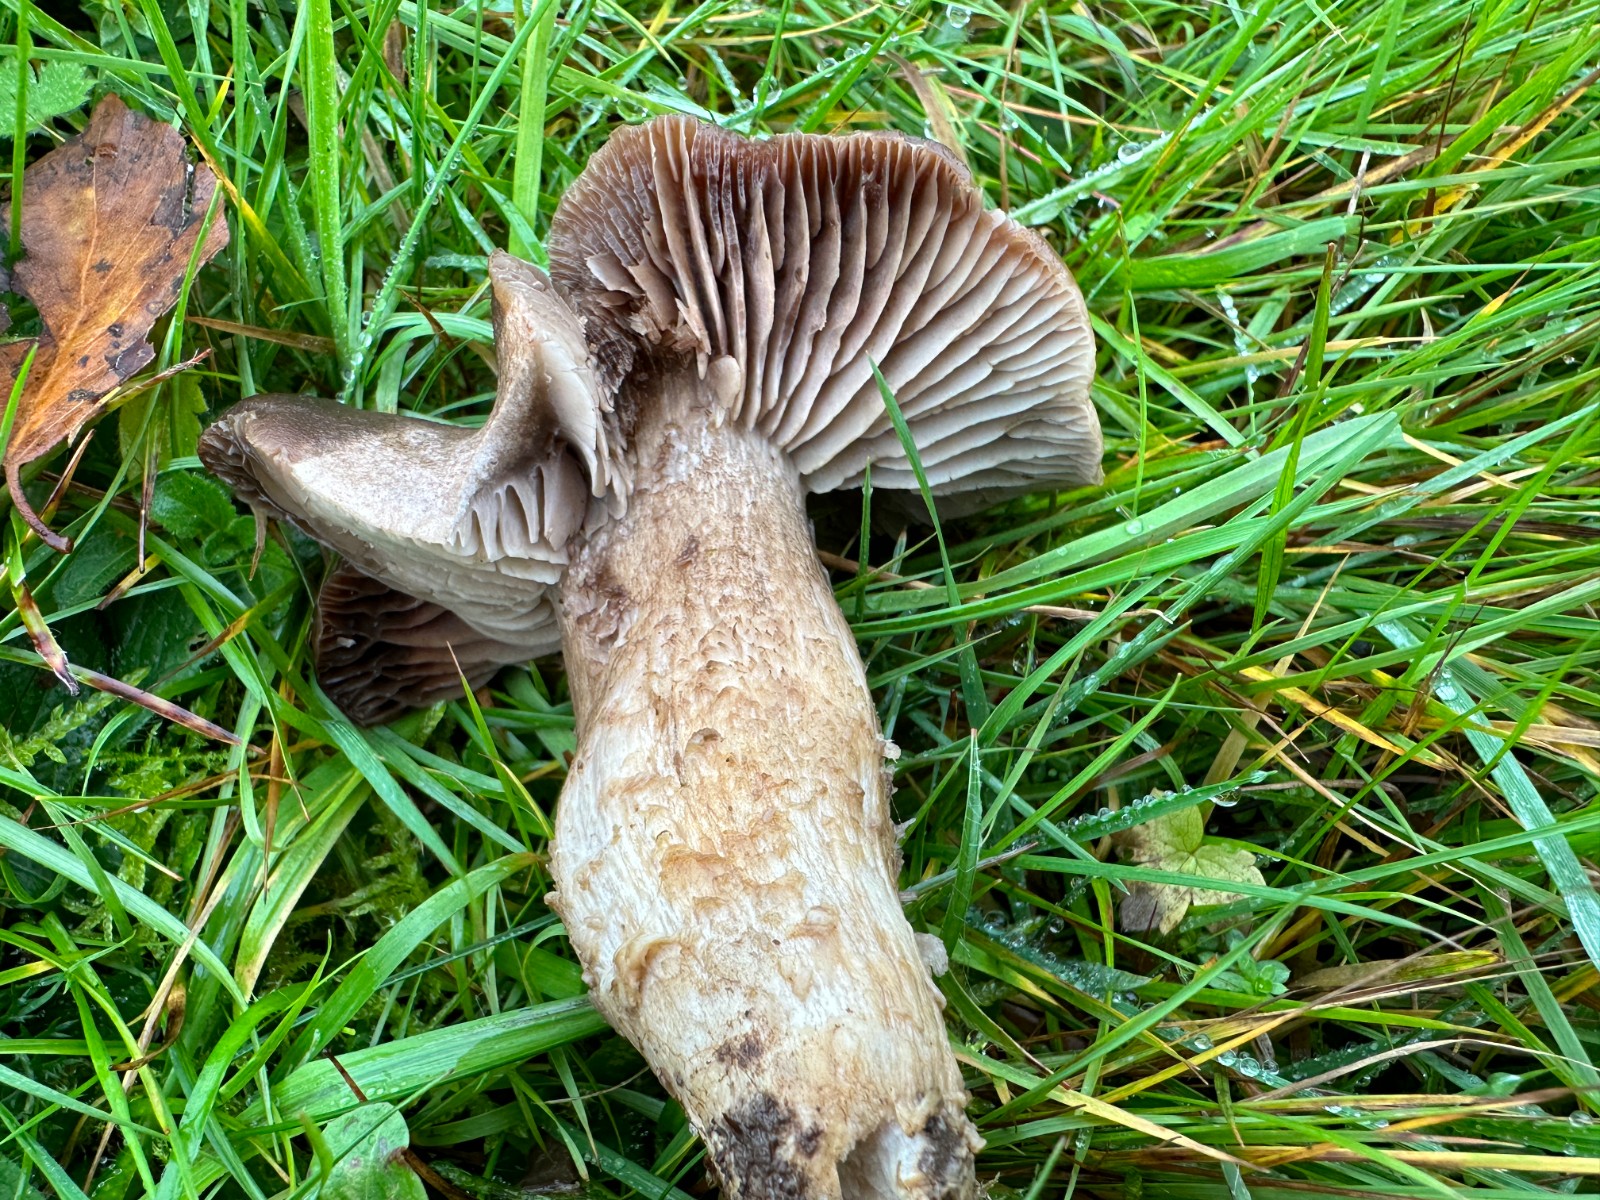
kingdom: Fungi
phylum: Basidiomycota
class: Agaricomycetes
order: Agaricales
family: Tricholomataceae
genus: Pseudotricholoma
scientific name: Pseudotricholoma metapodium
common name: rødmende alfehat
